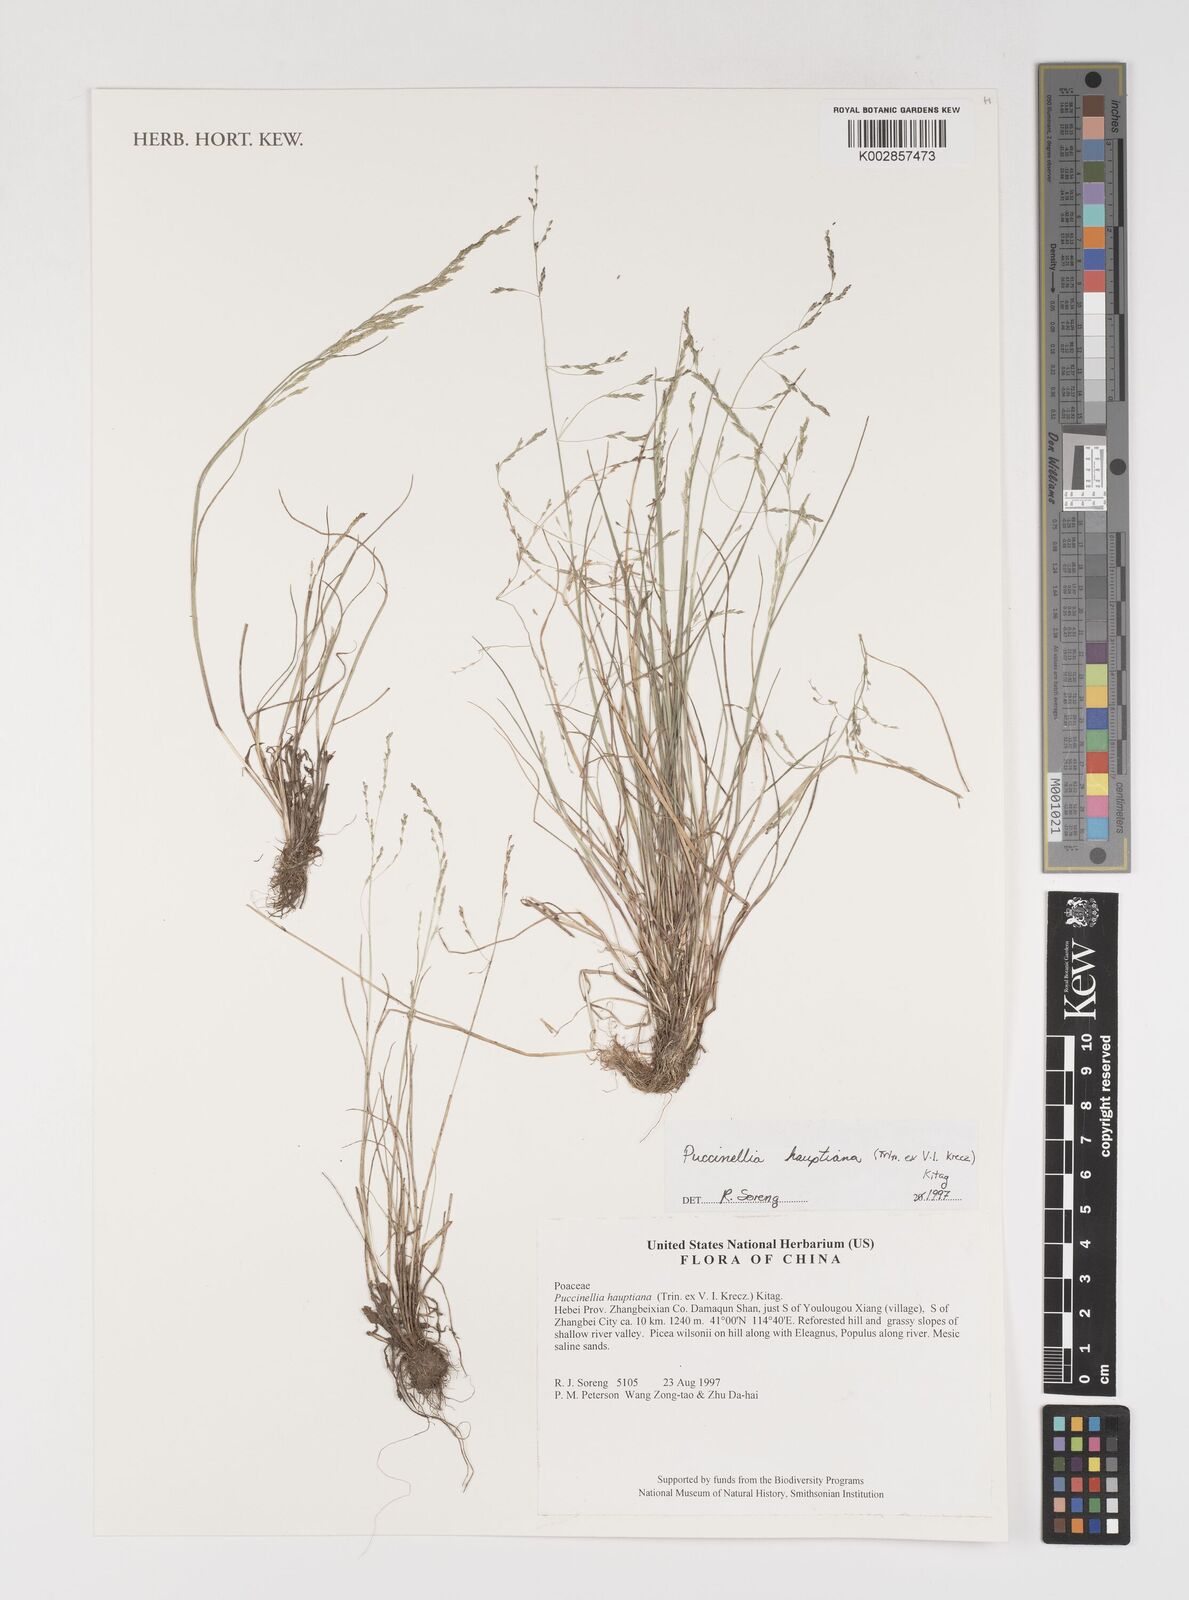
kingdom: Plantae
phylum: Tracheophyta
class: Liliopsida
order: Poales
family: Poaceae
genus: Puccinellia
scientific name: Puccinellia distans
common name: Weeping alkaligrass
